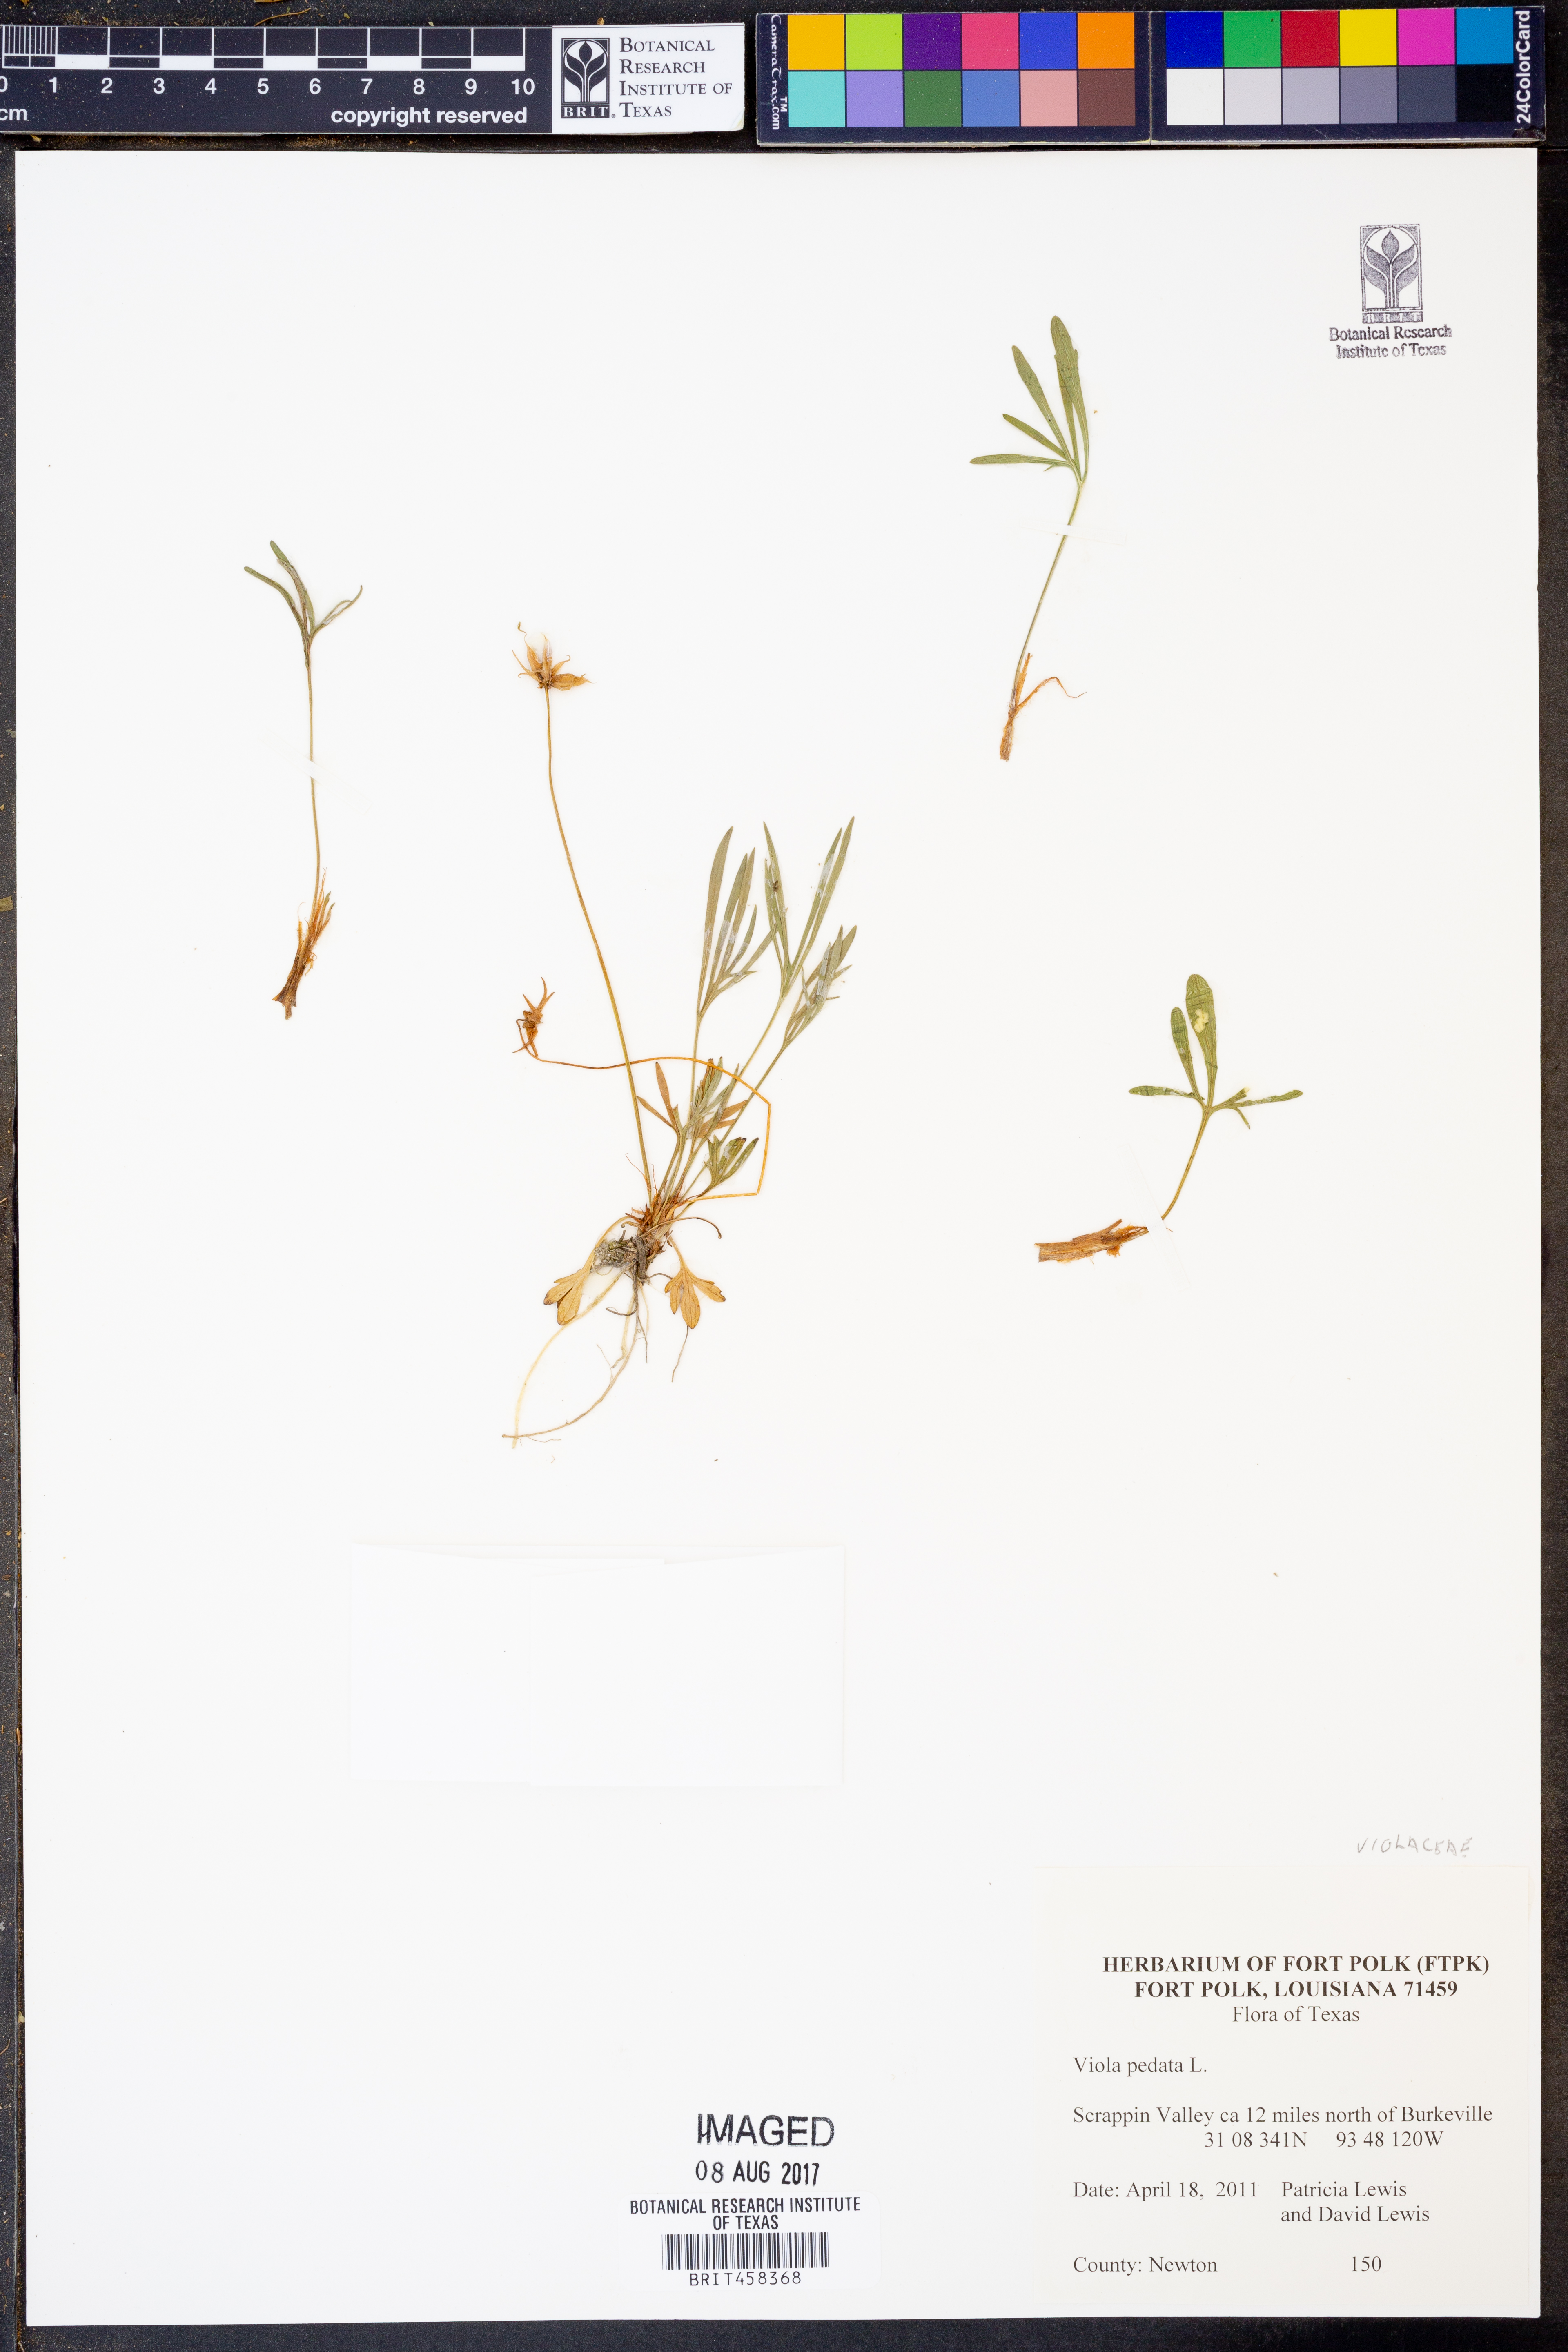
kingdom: Plantae
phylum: Tracheophyta
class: Magnoliopsida
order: Malpighiales
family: Violaceae
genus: Viola
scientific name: Viola pedata
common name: Pansy violet
